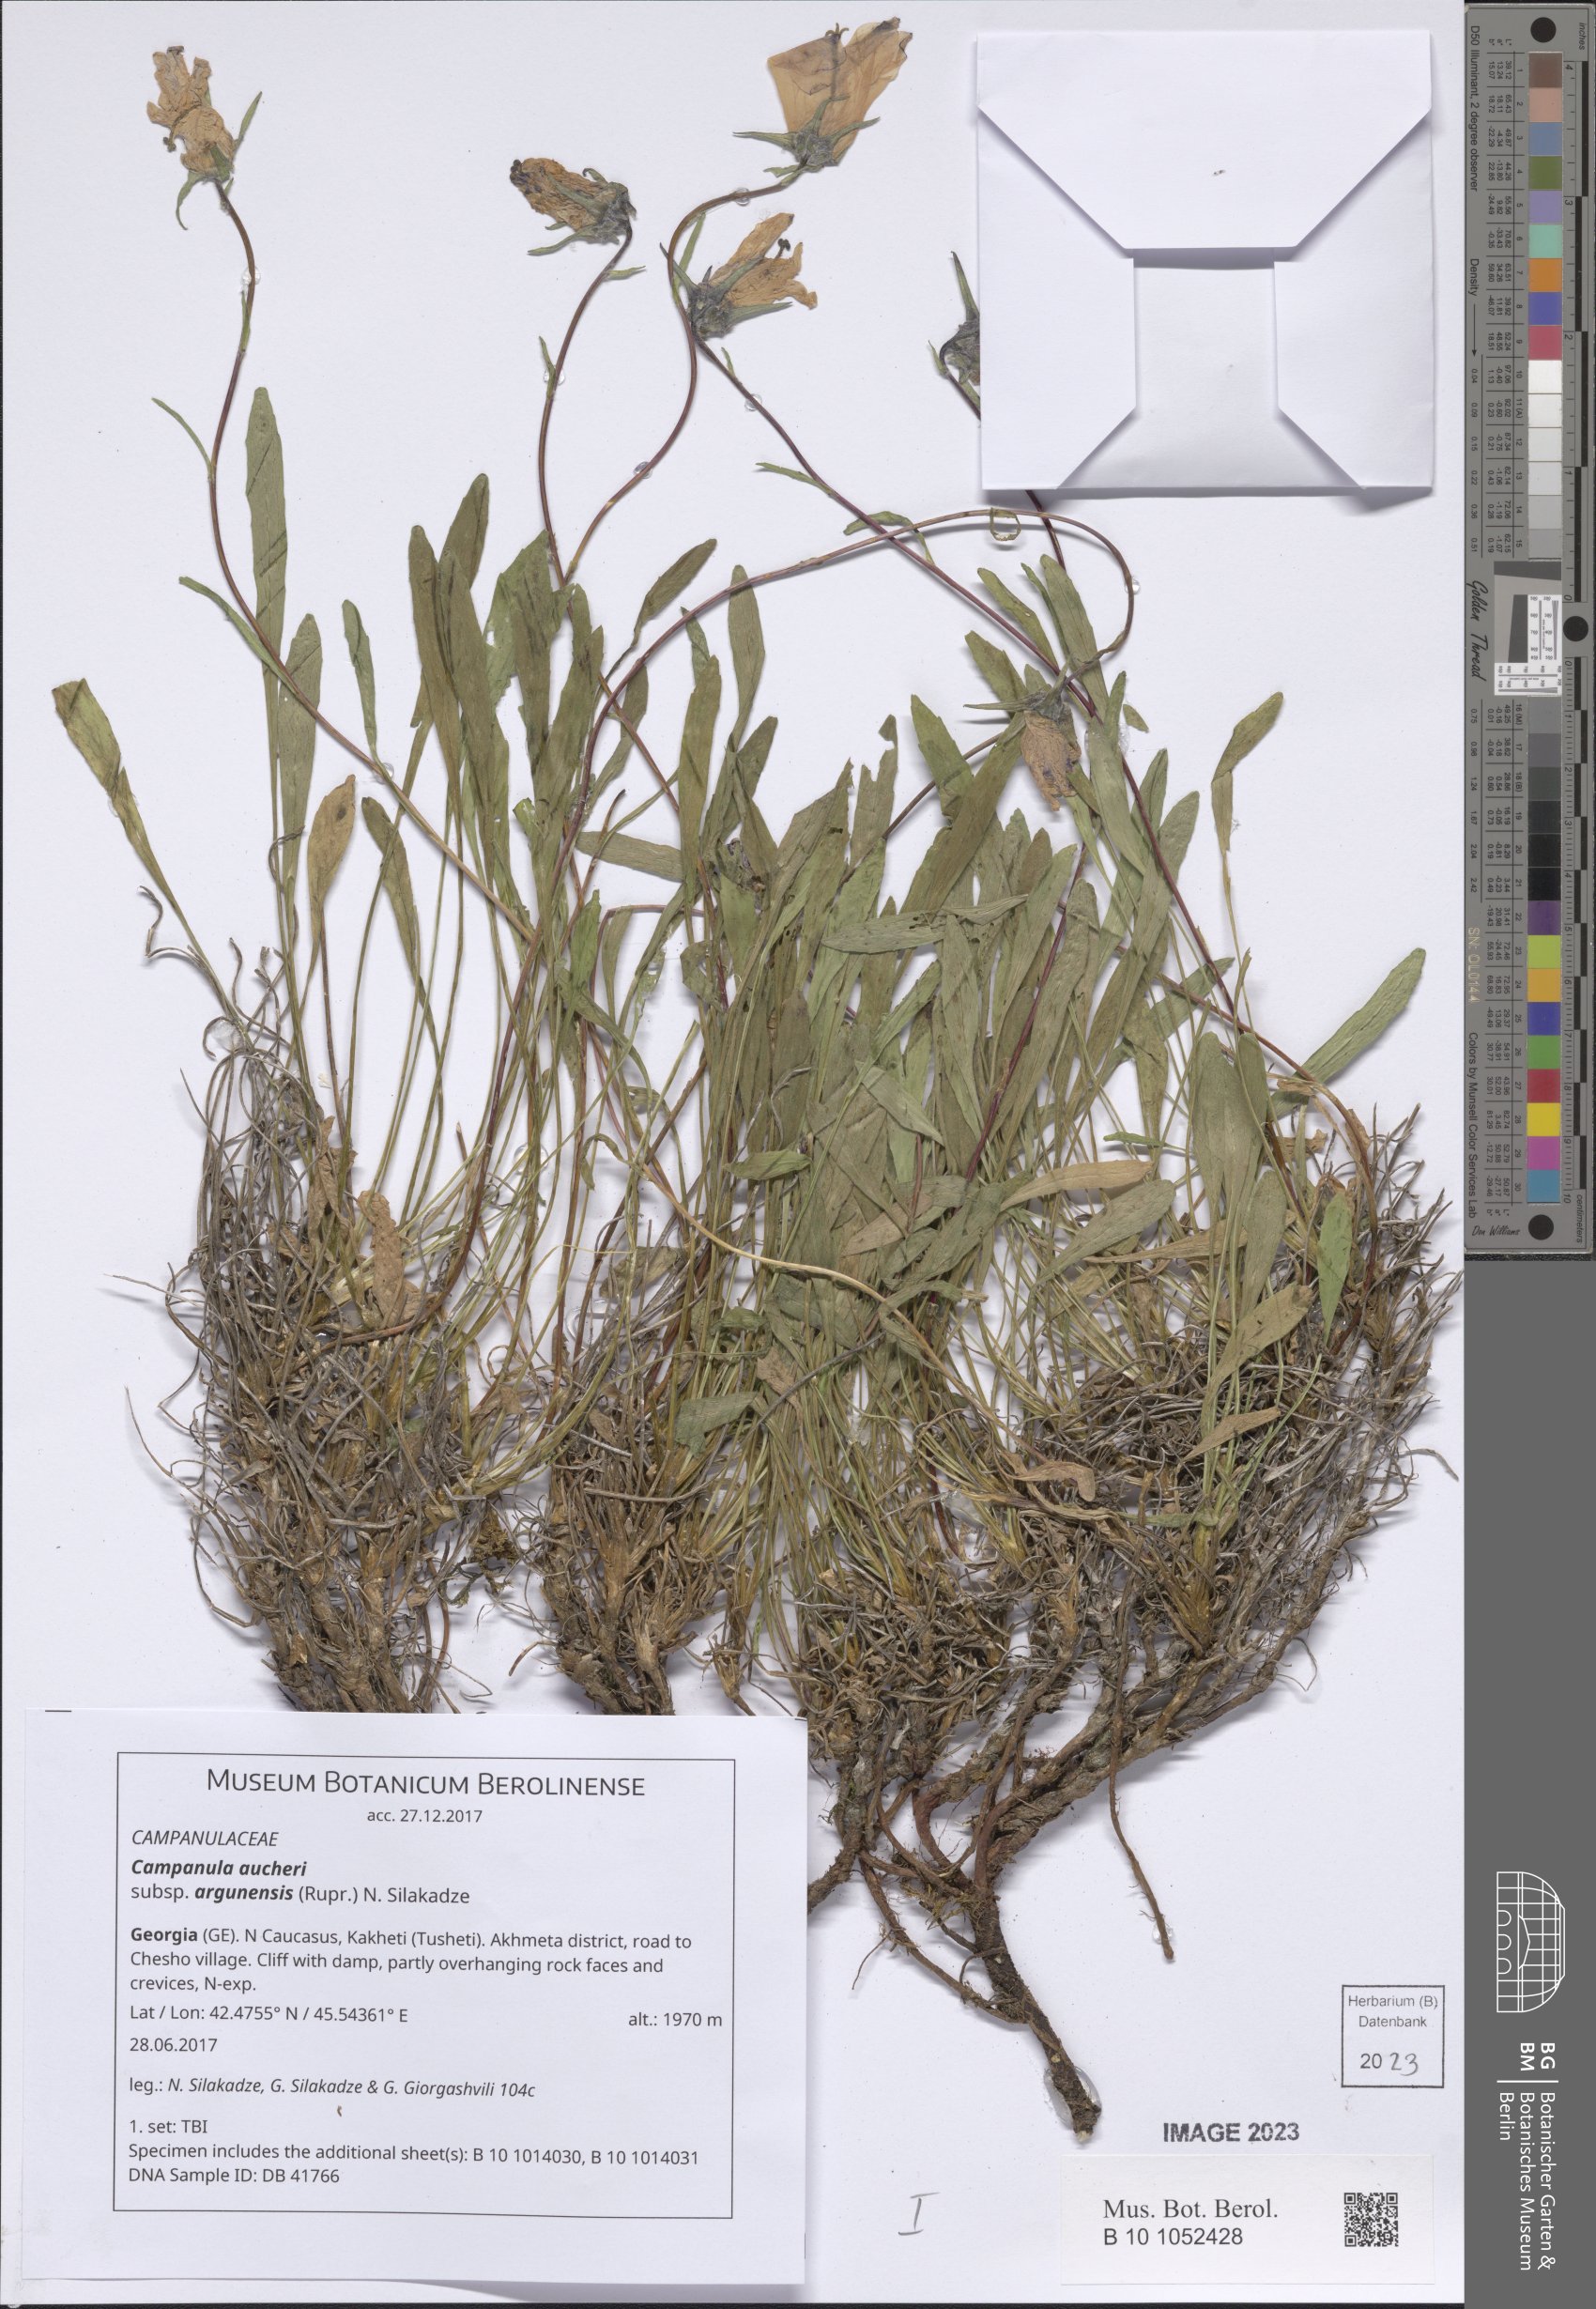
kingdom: Plantae
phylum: Tracheophyta
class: Magnoliopsida
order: Asterales
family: Campanulaceae
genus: Campanula
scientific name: Campanula saxifraga
